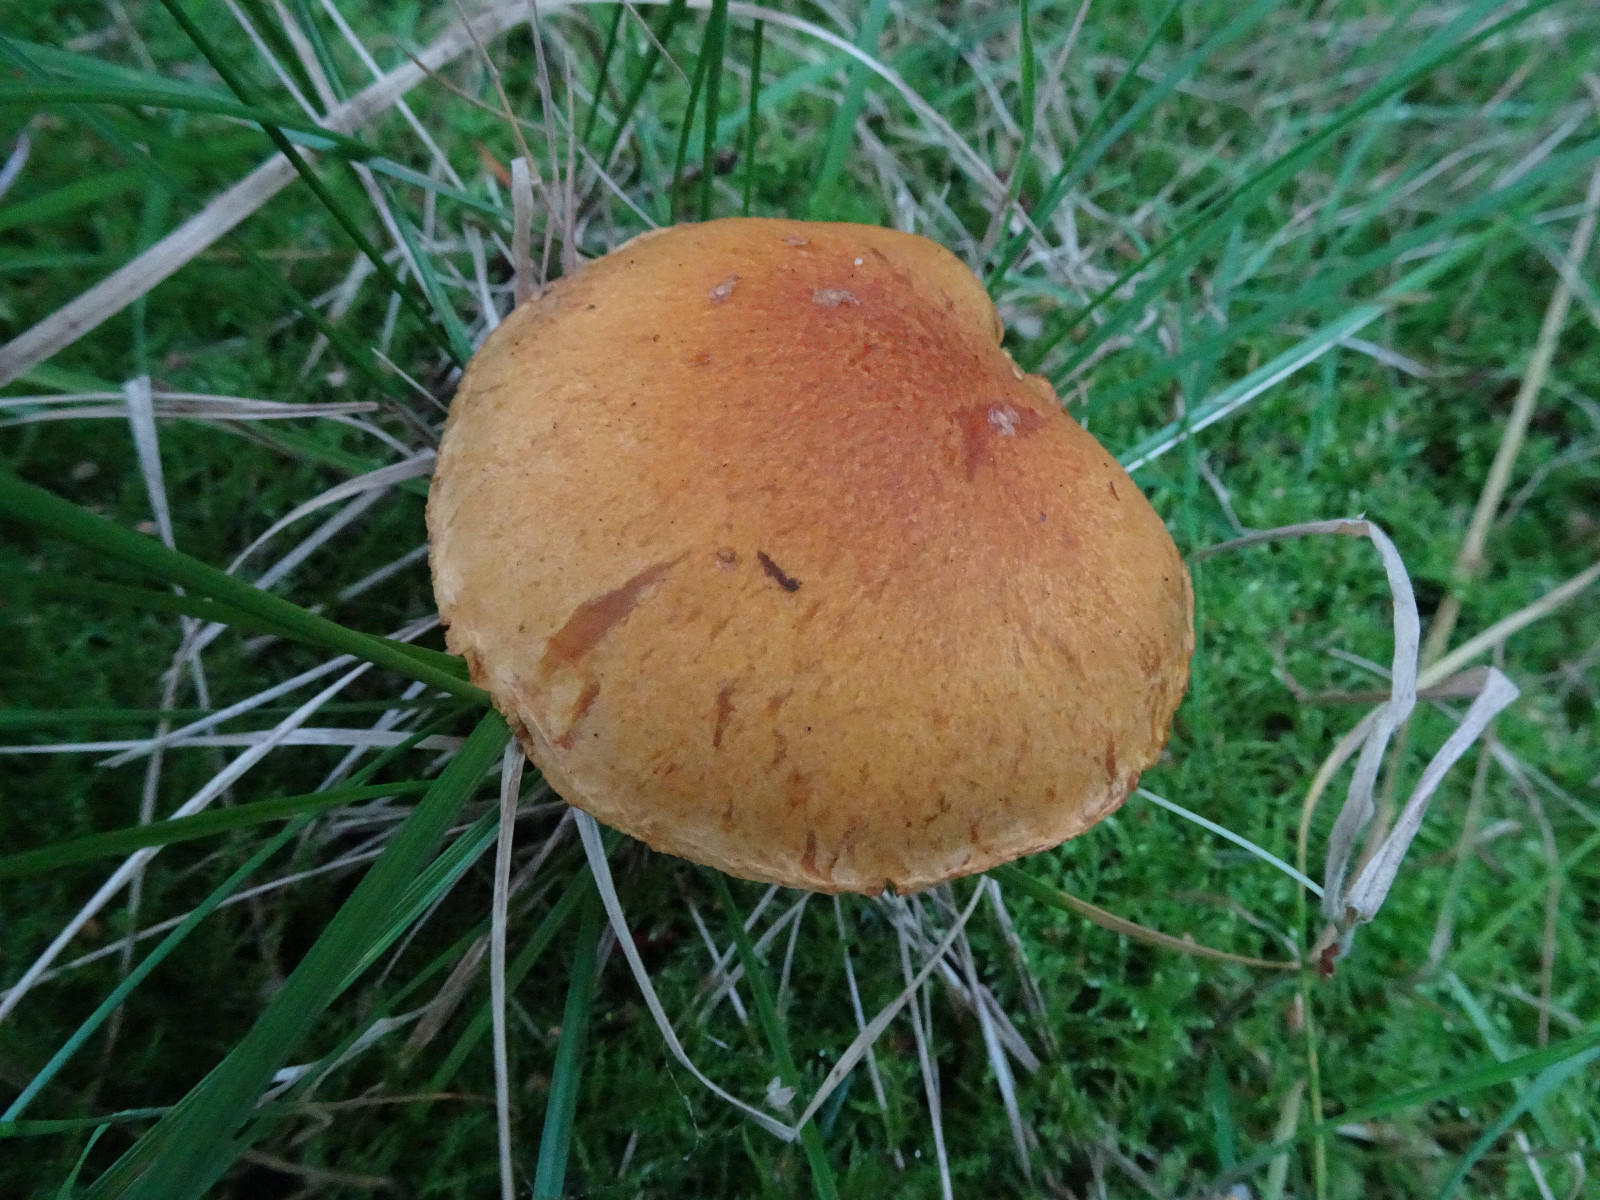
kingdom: Fungi
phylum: Basidiomycota
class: Agaricomycetes
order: Agaricales
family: Hymenogastraceae
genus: Gymnopilus
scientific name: Gymnopilus penetrans
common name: plettet flammehat
